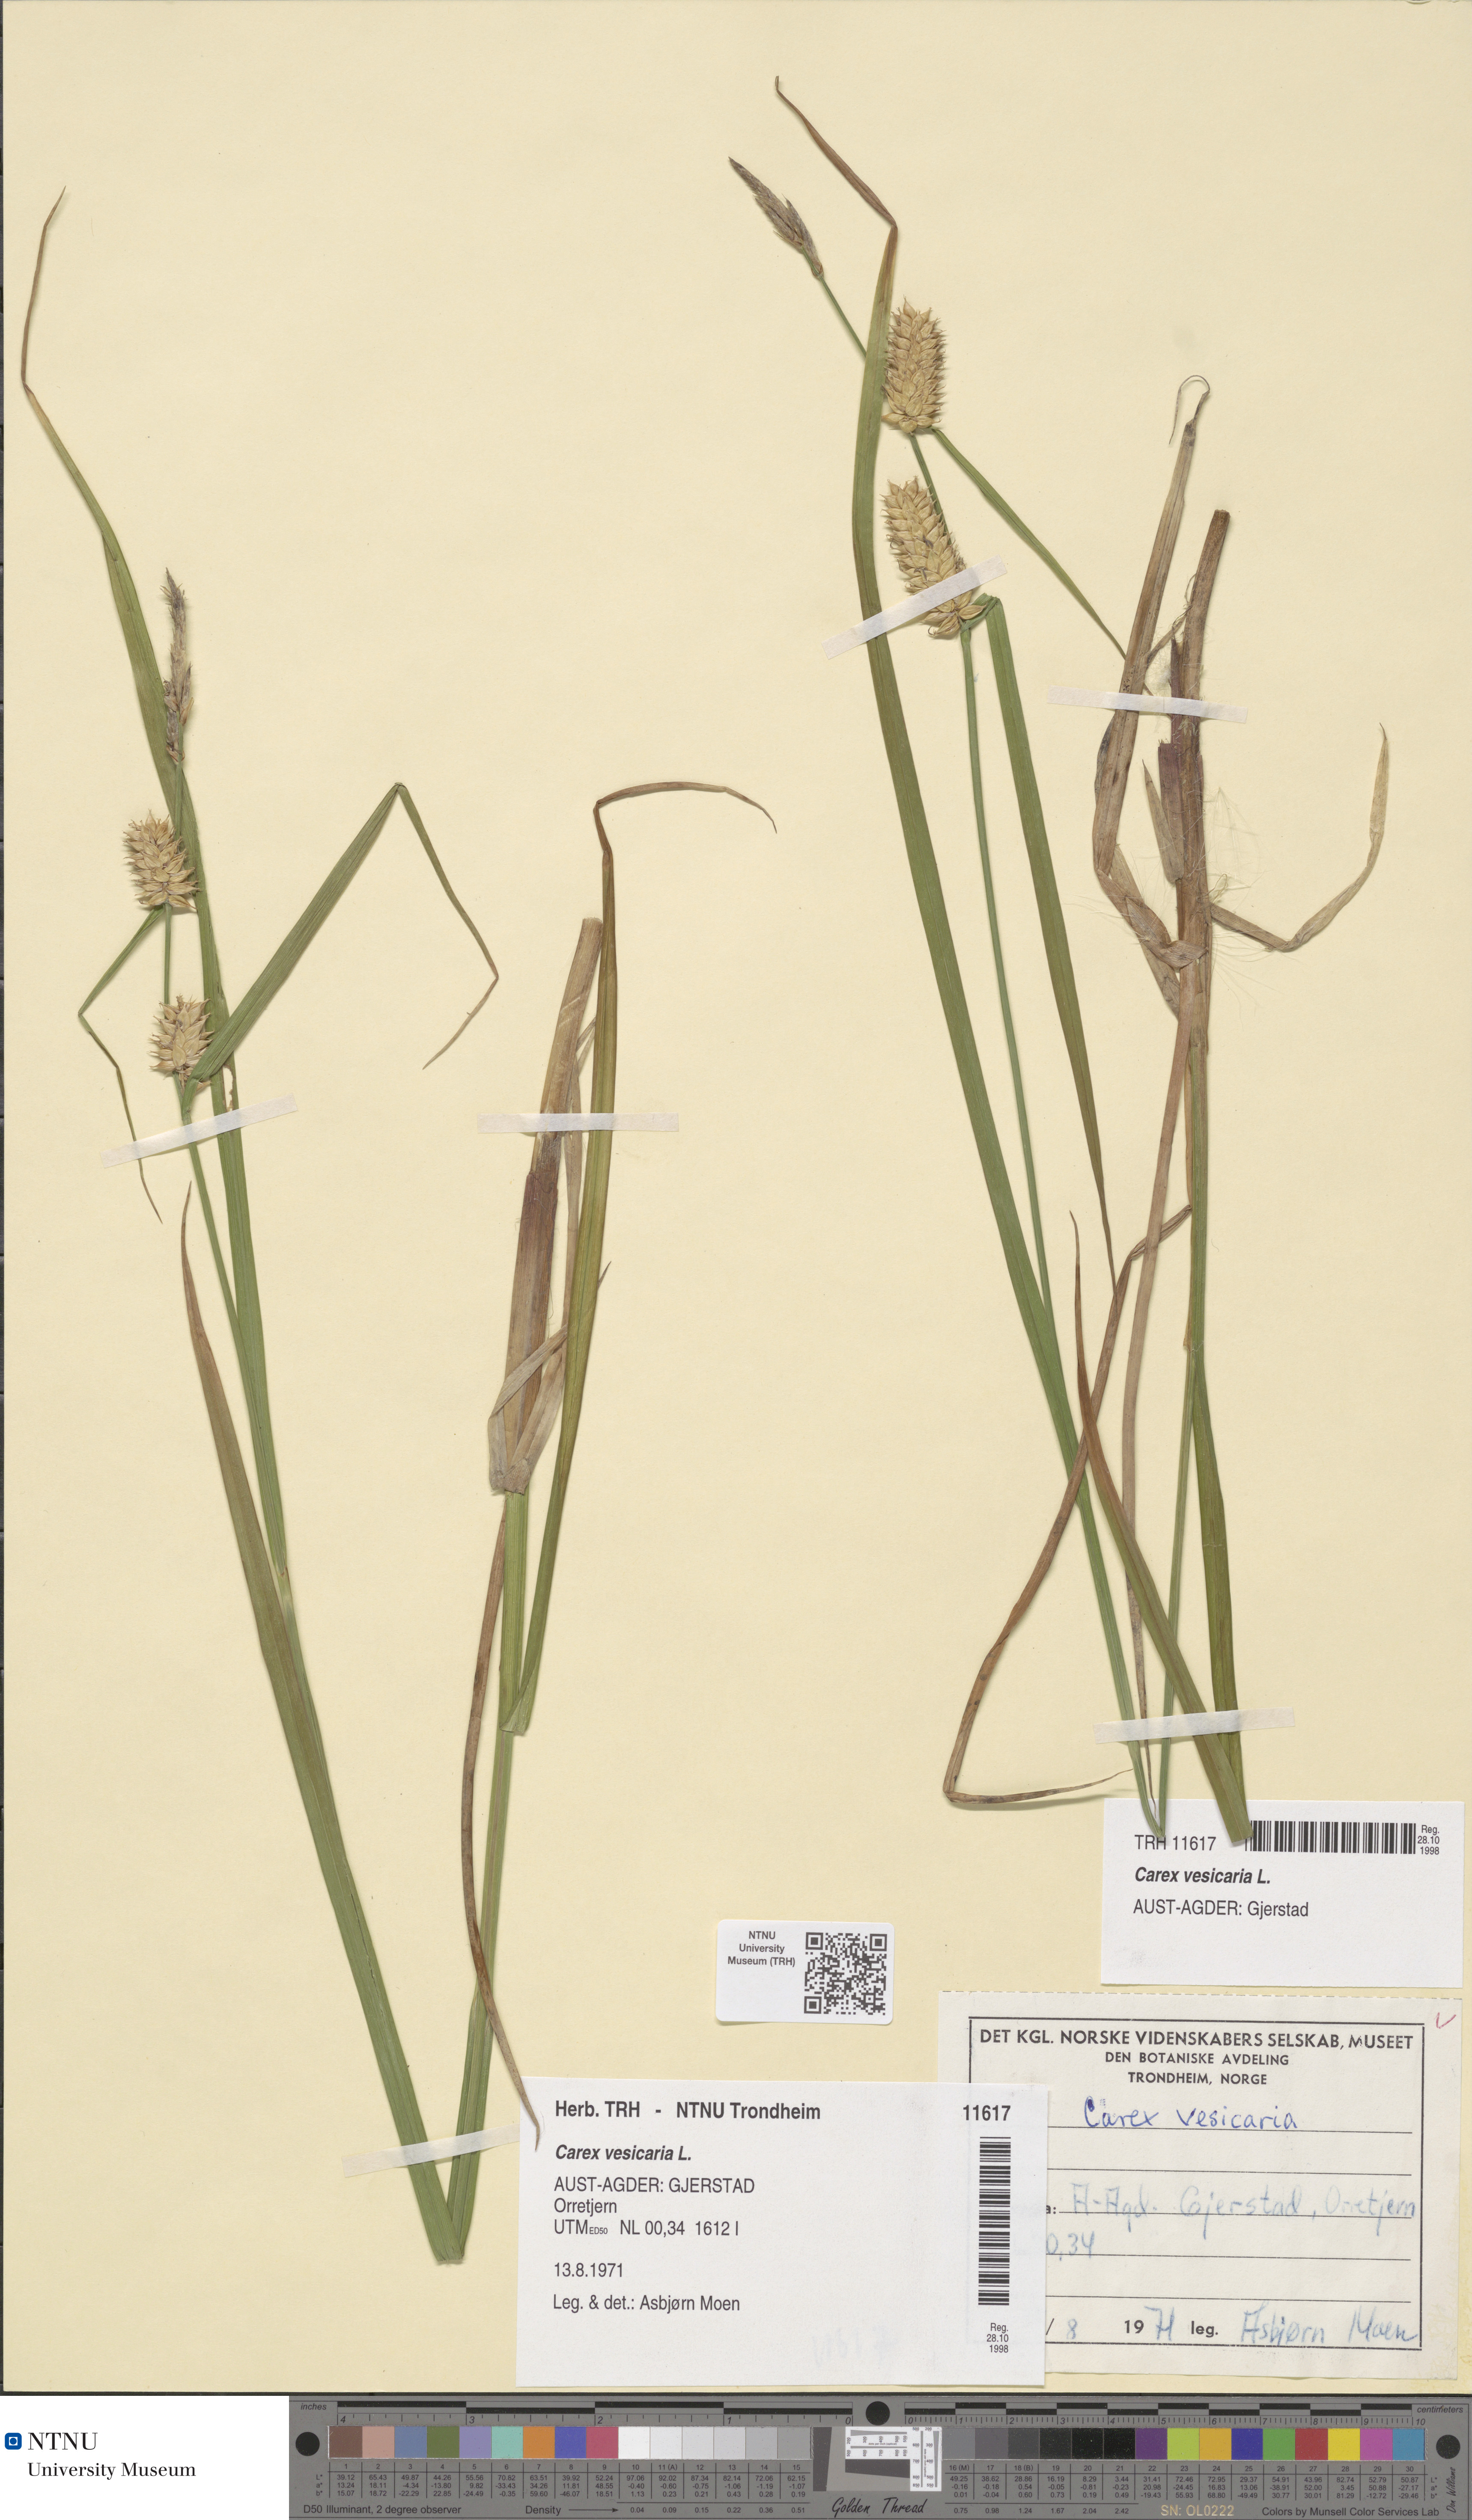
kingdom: Plantae
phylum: Tracheophyta
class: Liliopsida
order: Poales
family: Cyperaceae
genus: Carex
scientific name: Carex vesicaria
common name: Bladder-sedge
